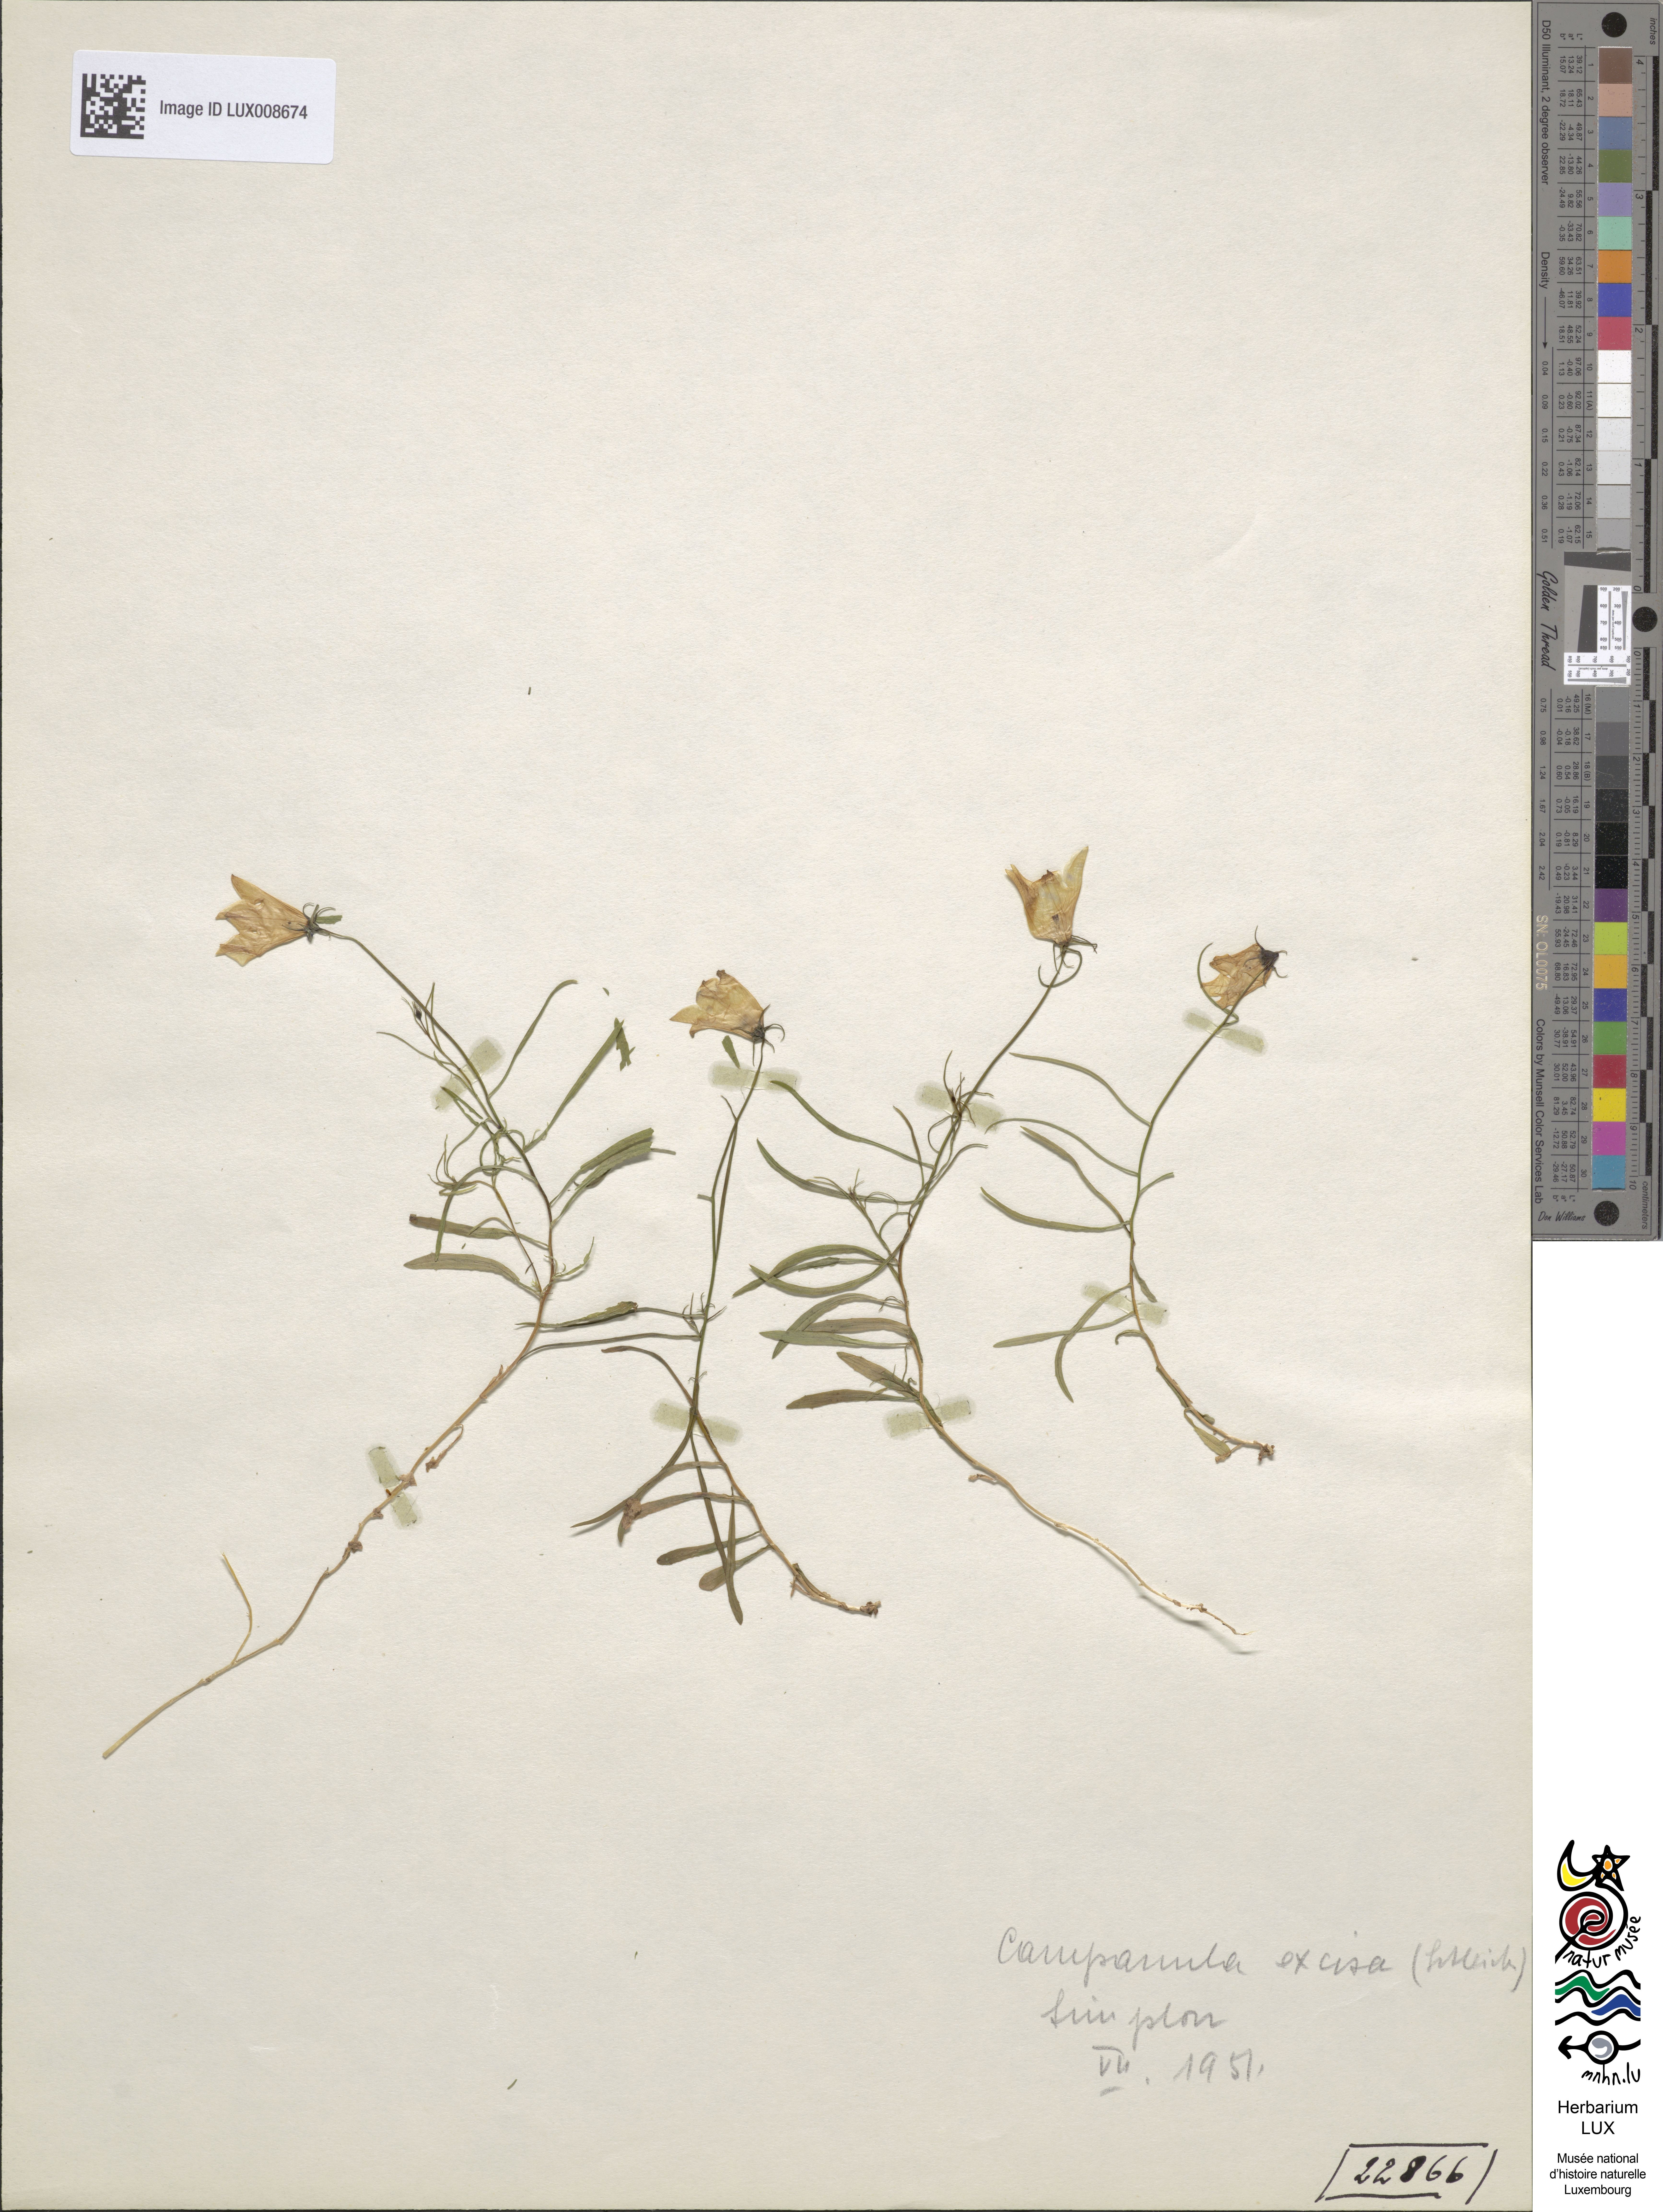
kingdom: Plantae
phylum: Tracheophyta
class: Magnoliopsida
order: Asterales
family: Campanulaceae
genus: Campanula
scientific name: Campanula excisa
